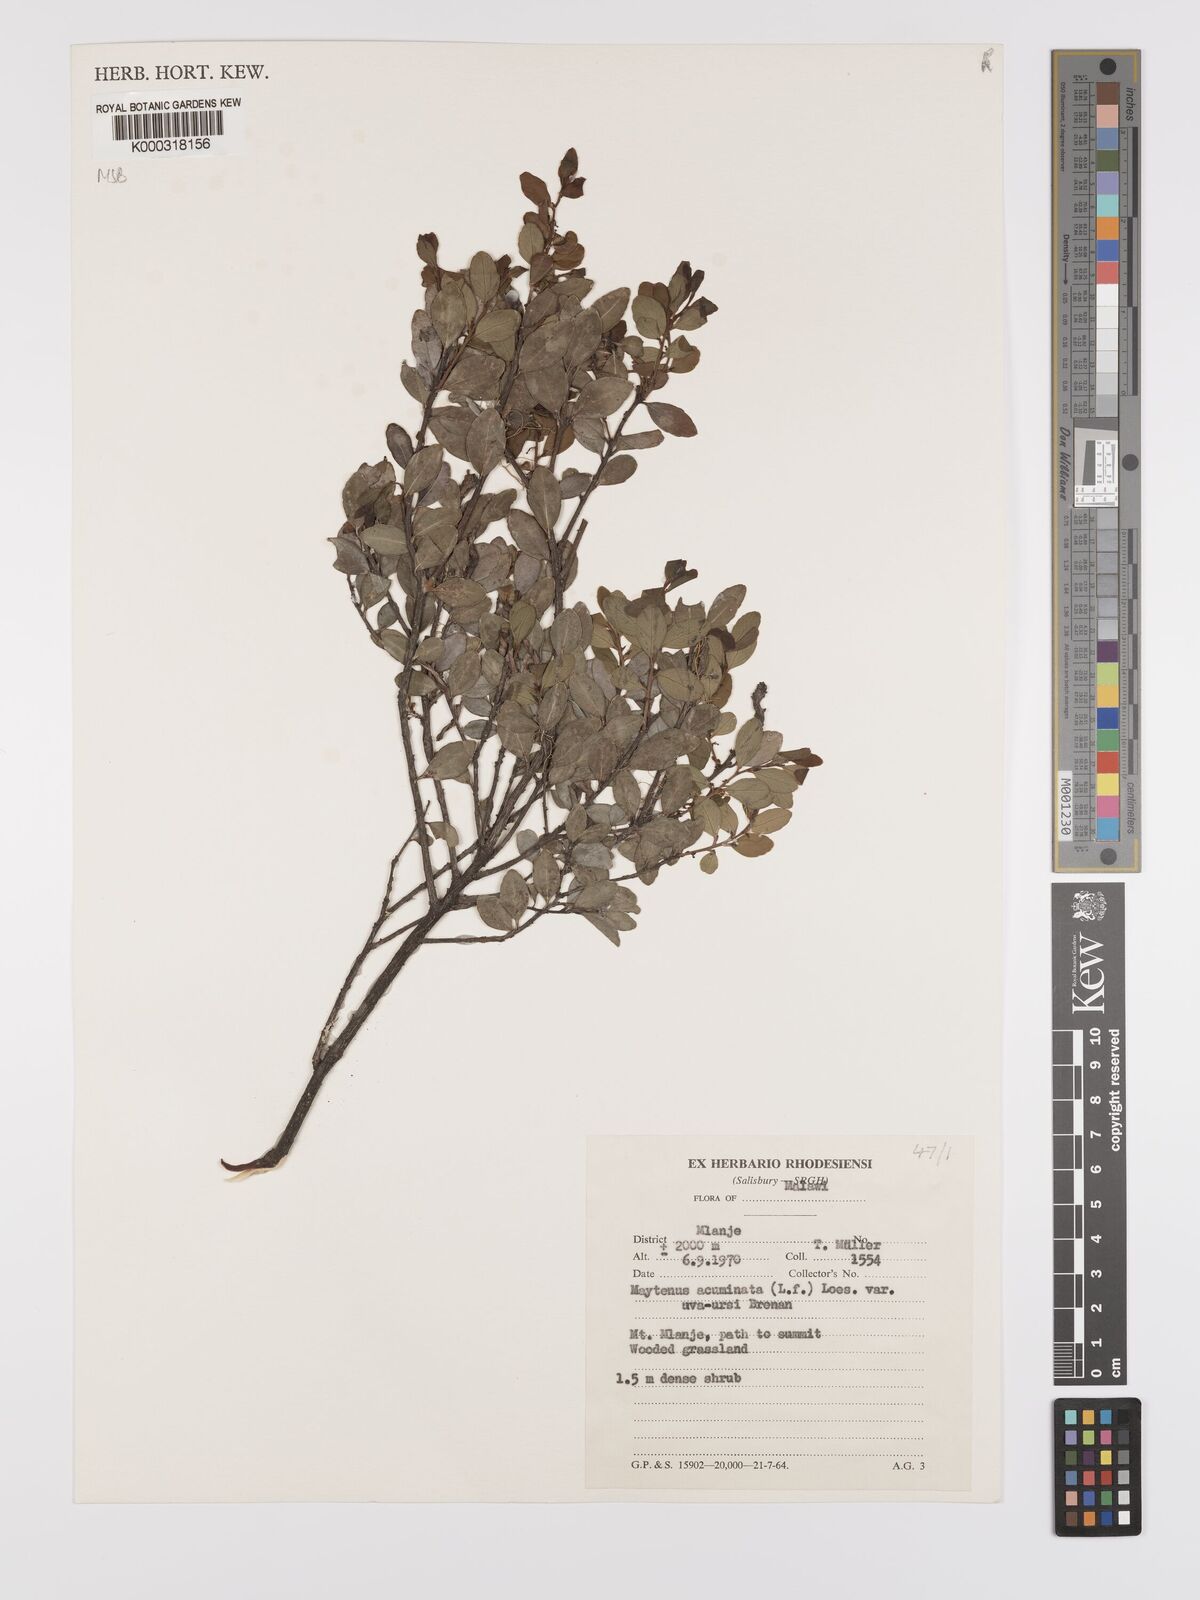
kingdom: Plantae
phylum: Tracheophyta
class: Magnoliopsida
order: Celastrales
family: Celastraceae
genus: Maytenus
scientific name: Maytenus
